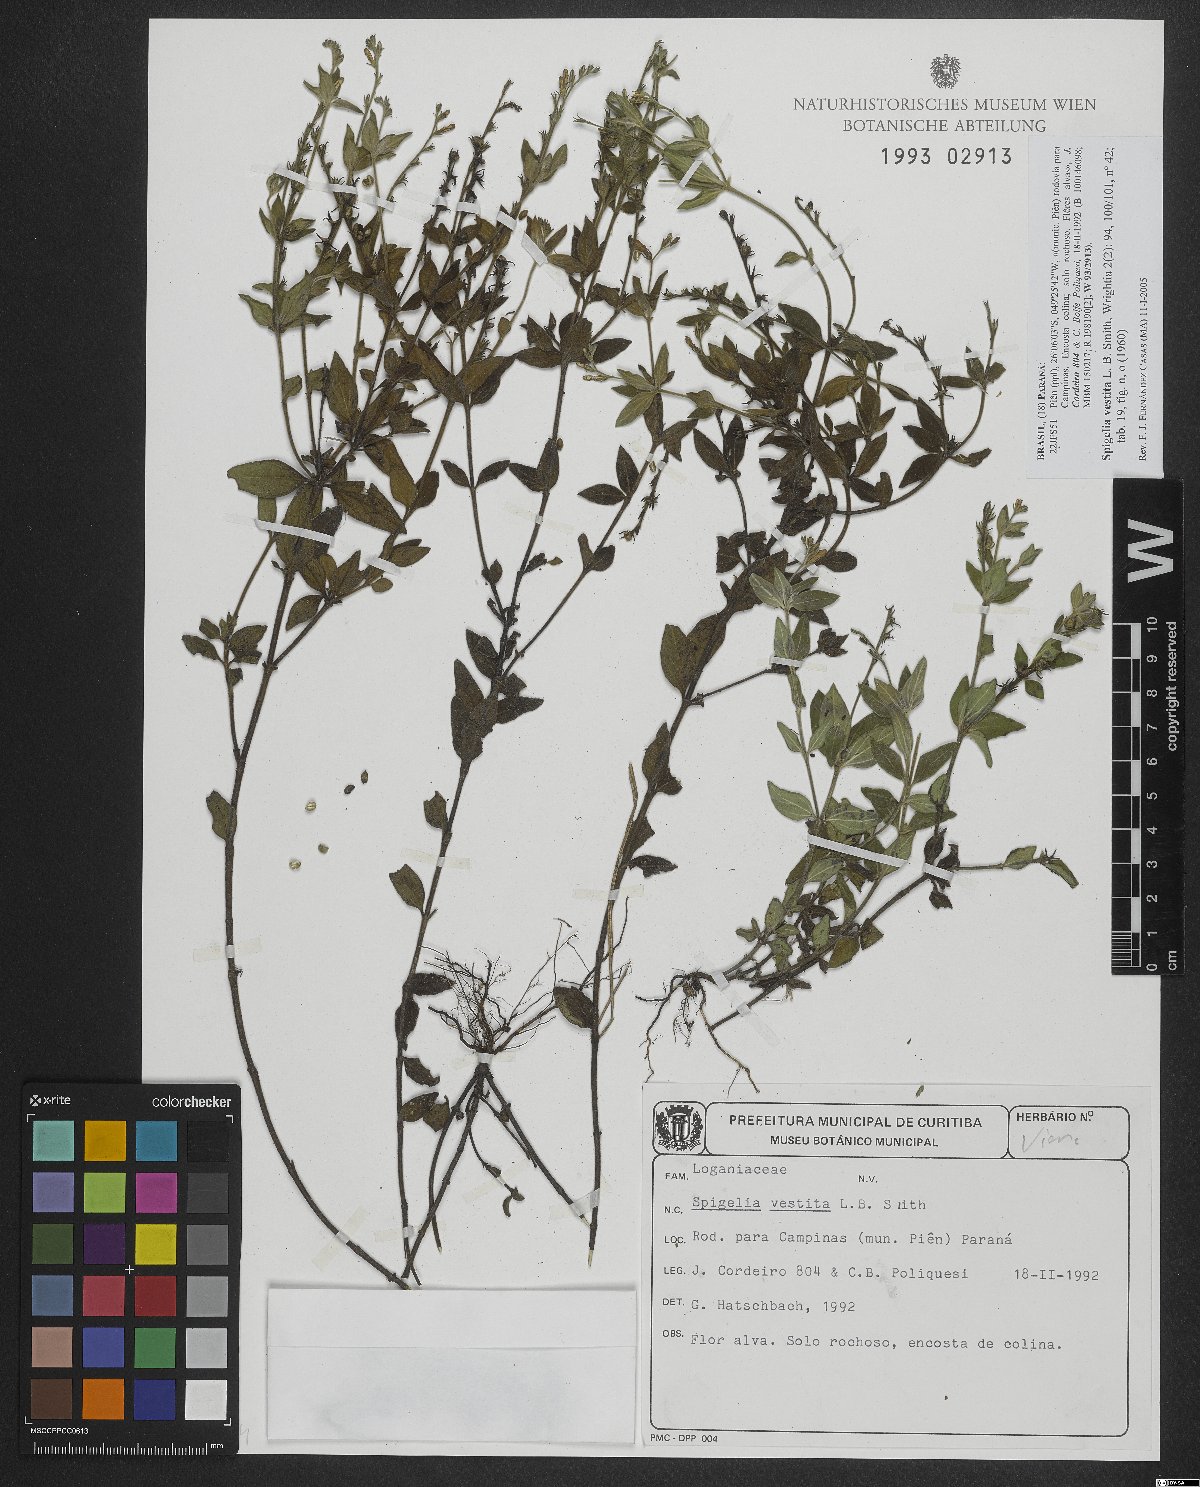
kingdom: Plantae
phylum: Tracheophyta
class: Magnoliopsida
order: Gentianales
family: Loganiaceae
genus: Spigelia
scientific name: Spigelia vestita
